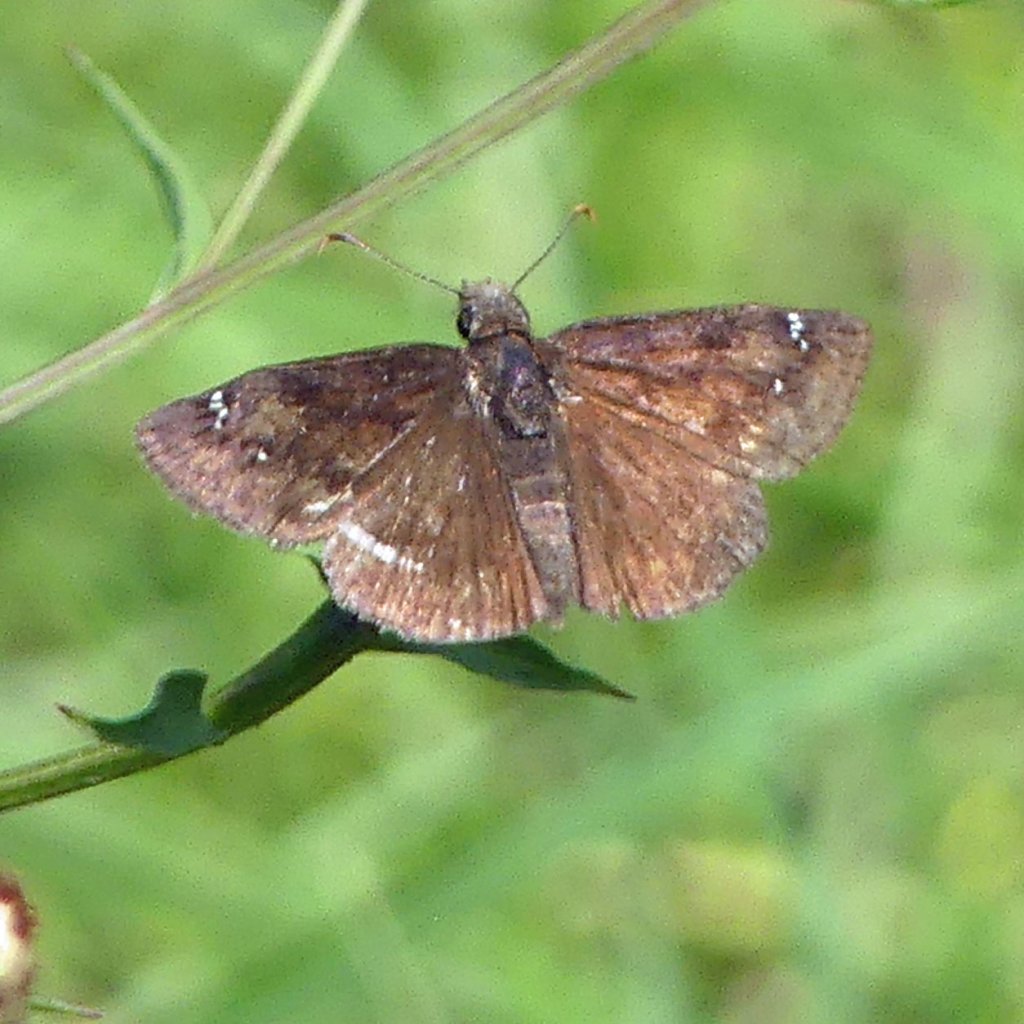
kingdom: Animalia
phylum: Arthropoda
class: Insecta
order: Lepidoptera
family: Hesperiidae
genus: Gesta
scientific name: Gesta
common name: Wild Indigo Duskywing
